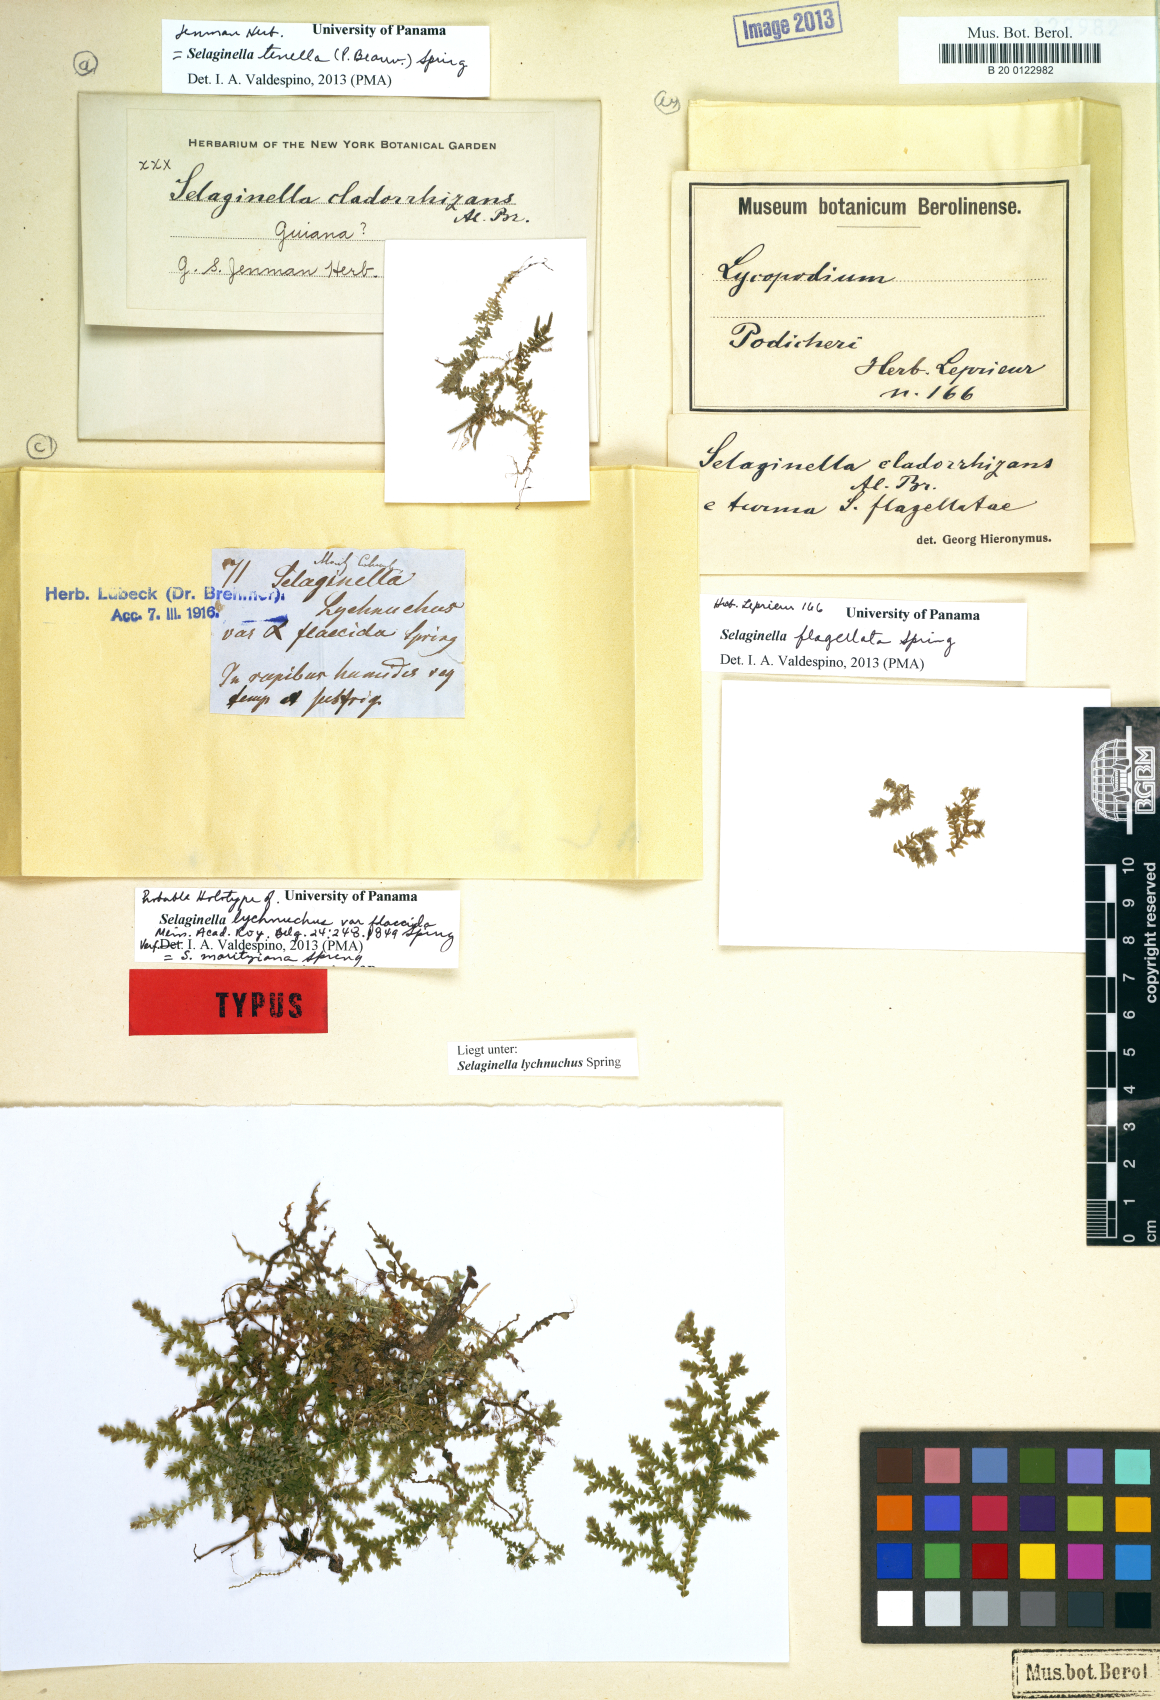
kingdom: Plantae
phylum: Tracheophyta
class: Lycopodiopsida
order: Selaginellales
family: Selaginellaceae
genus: Selaginella
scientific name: Selaginella moritziana
